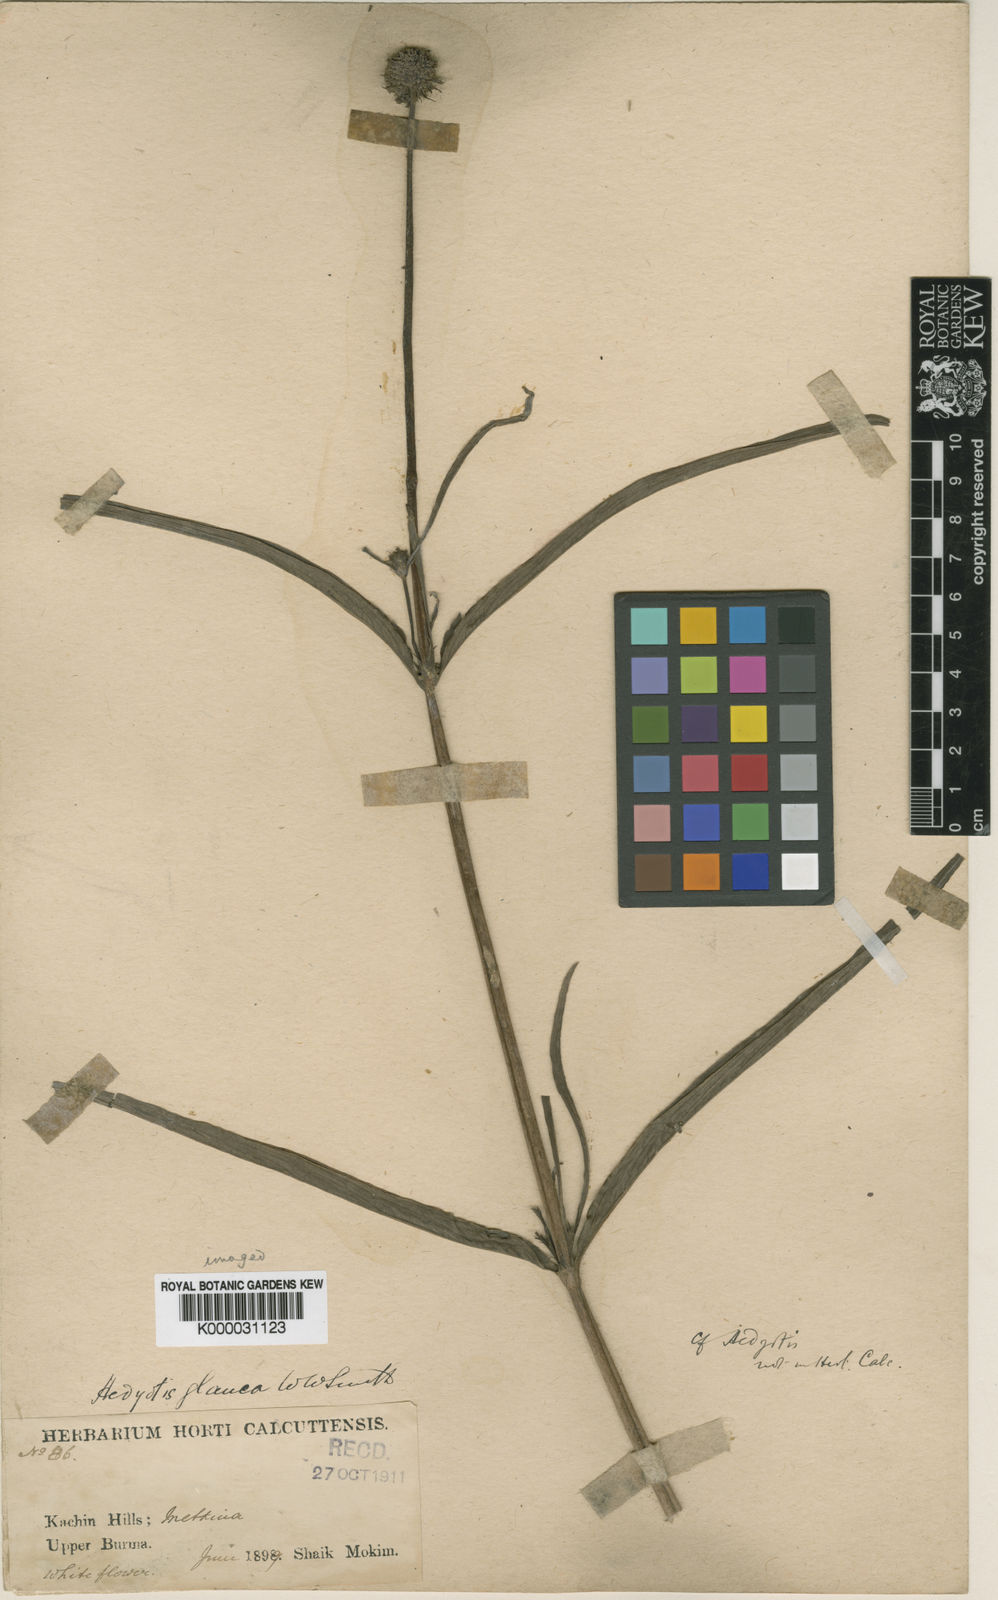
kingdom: Plantae
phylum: Tracheophyta
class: Magnoliopsida
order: Gentianales
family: Rubiaceae
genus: Knoxia
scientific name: Knoxia roxburghii
